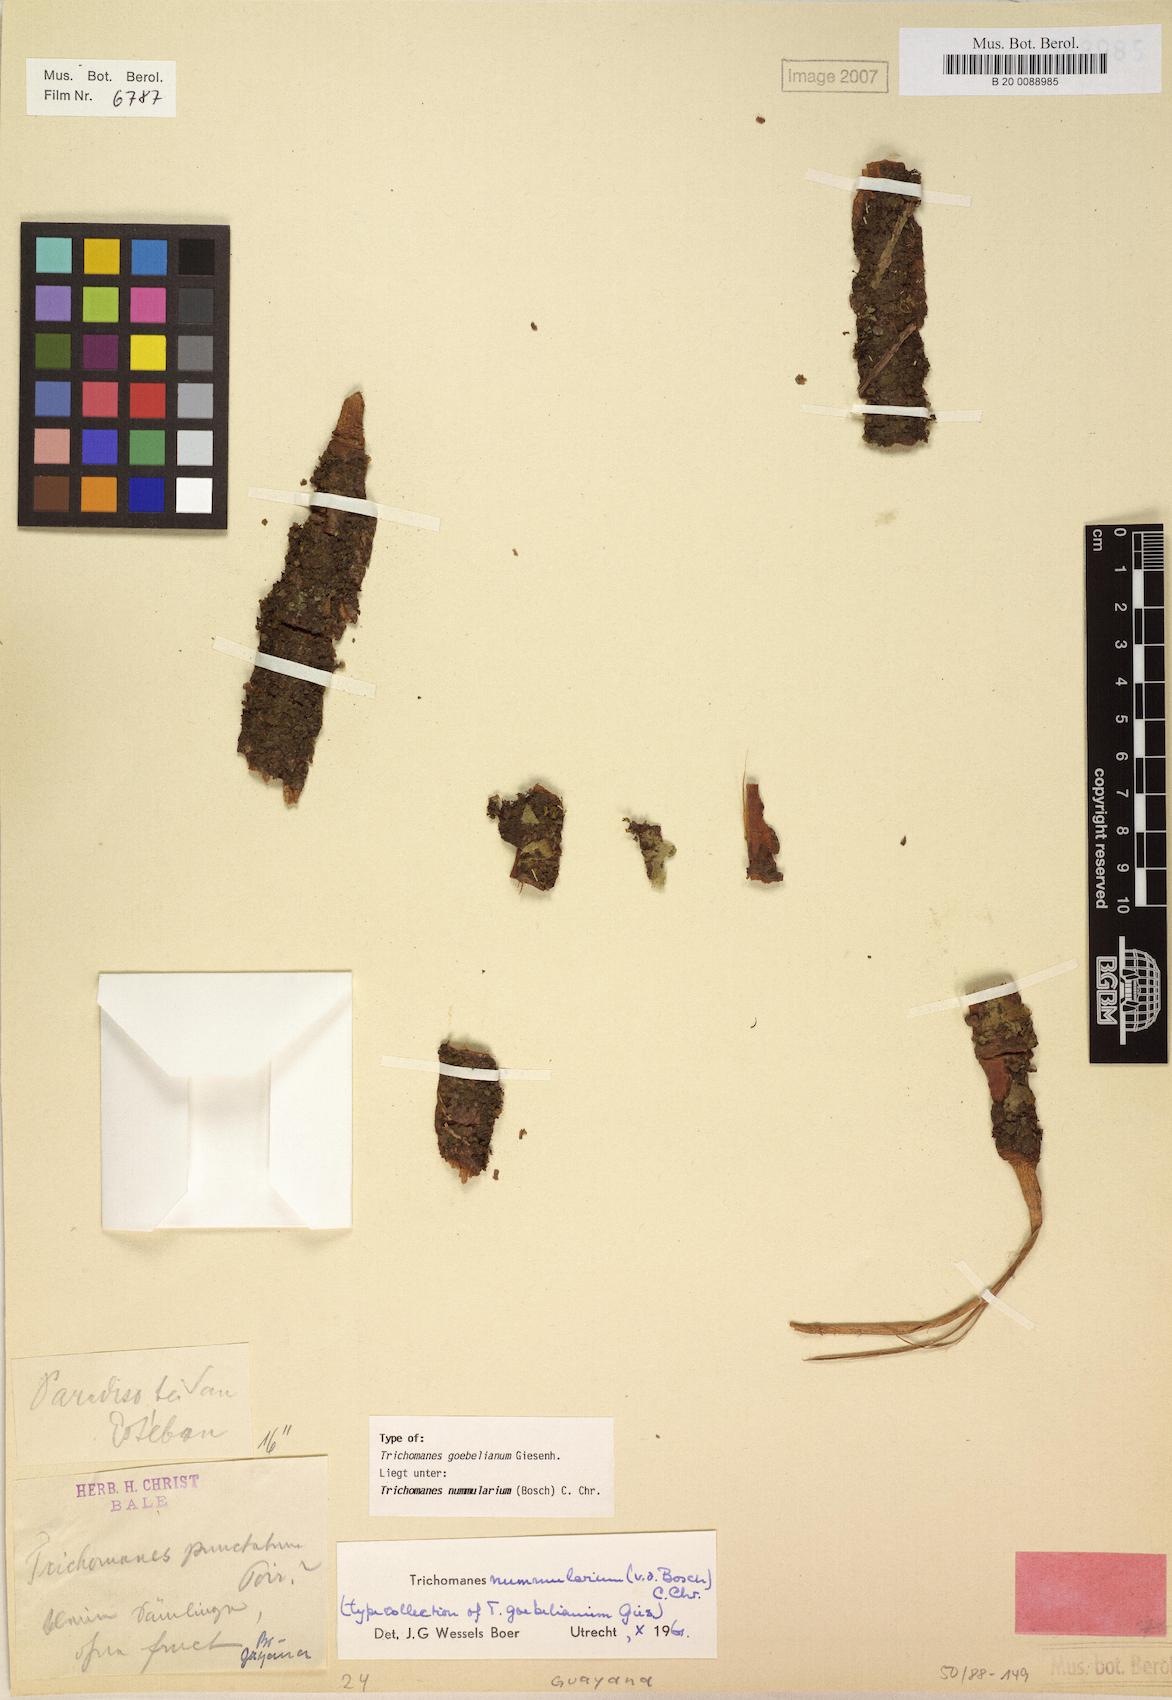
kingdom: Plantae
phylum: Tracheophyta
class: Polypodiopsida
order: Hymenophyllales
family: Hymenophyllaceae
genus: Didymoglossum
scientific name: Didymoglossum nummularium
